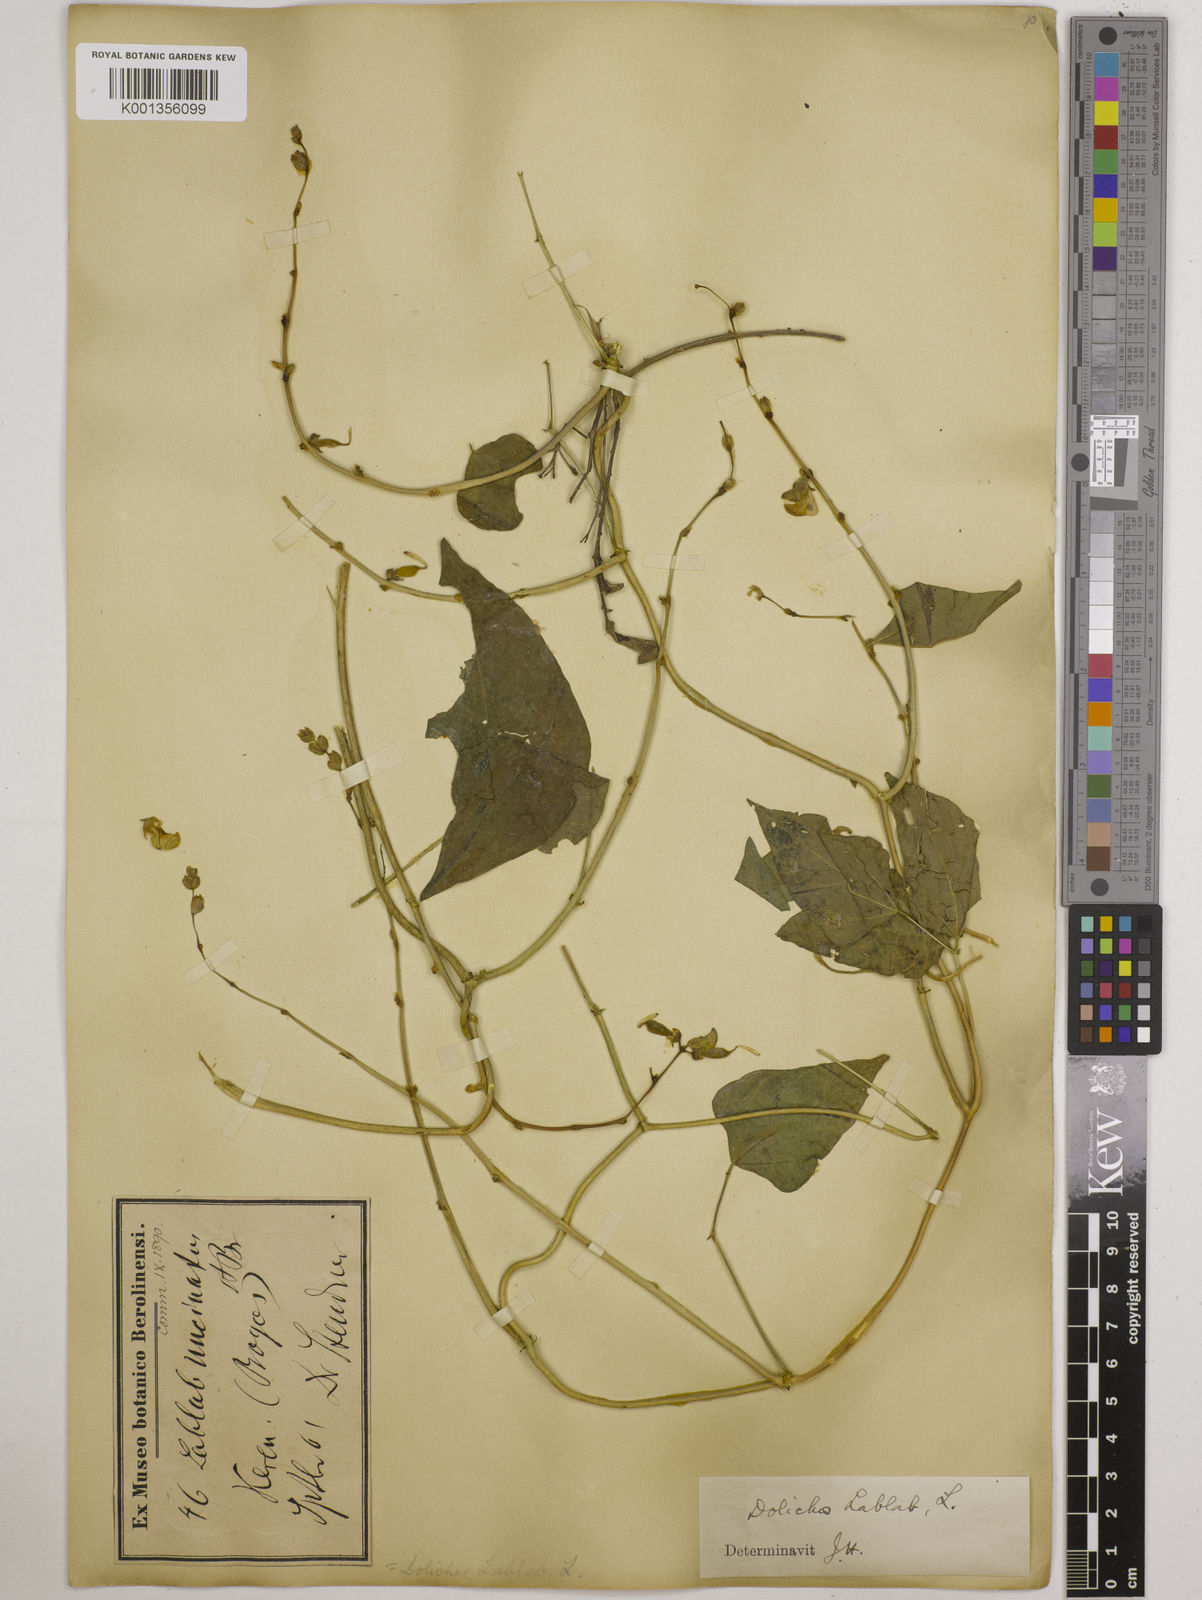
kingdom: Plantae
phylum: Tracheophyta
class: Magnoliopsida
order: Fabales
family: Fabaceae
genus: Lablab
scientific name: Lablab purpureus
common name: Lablab-bean
